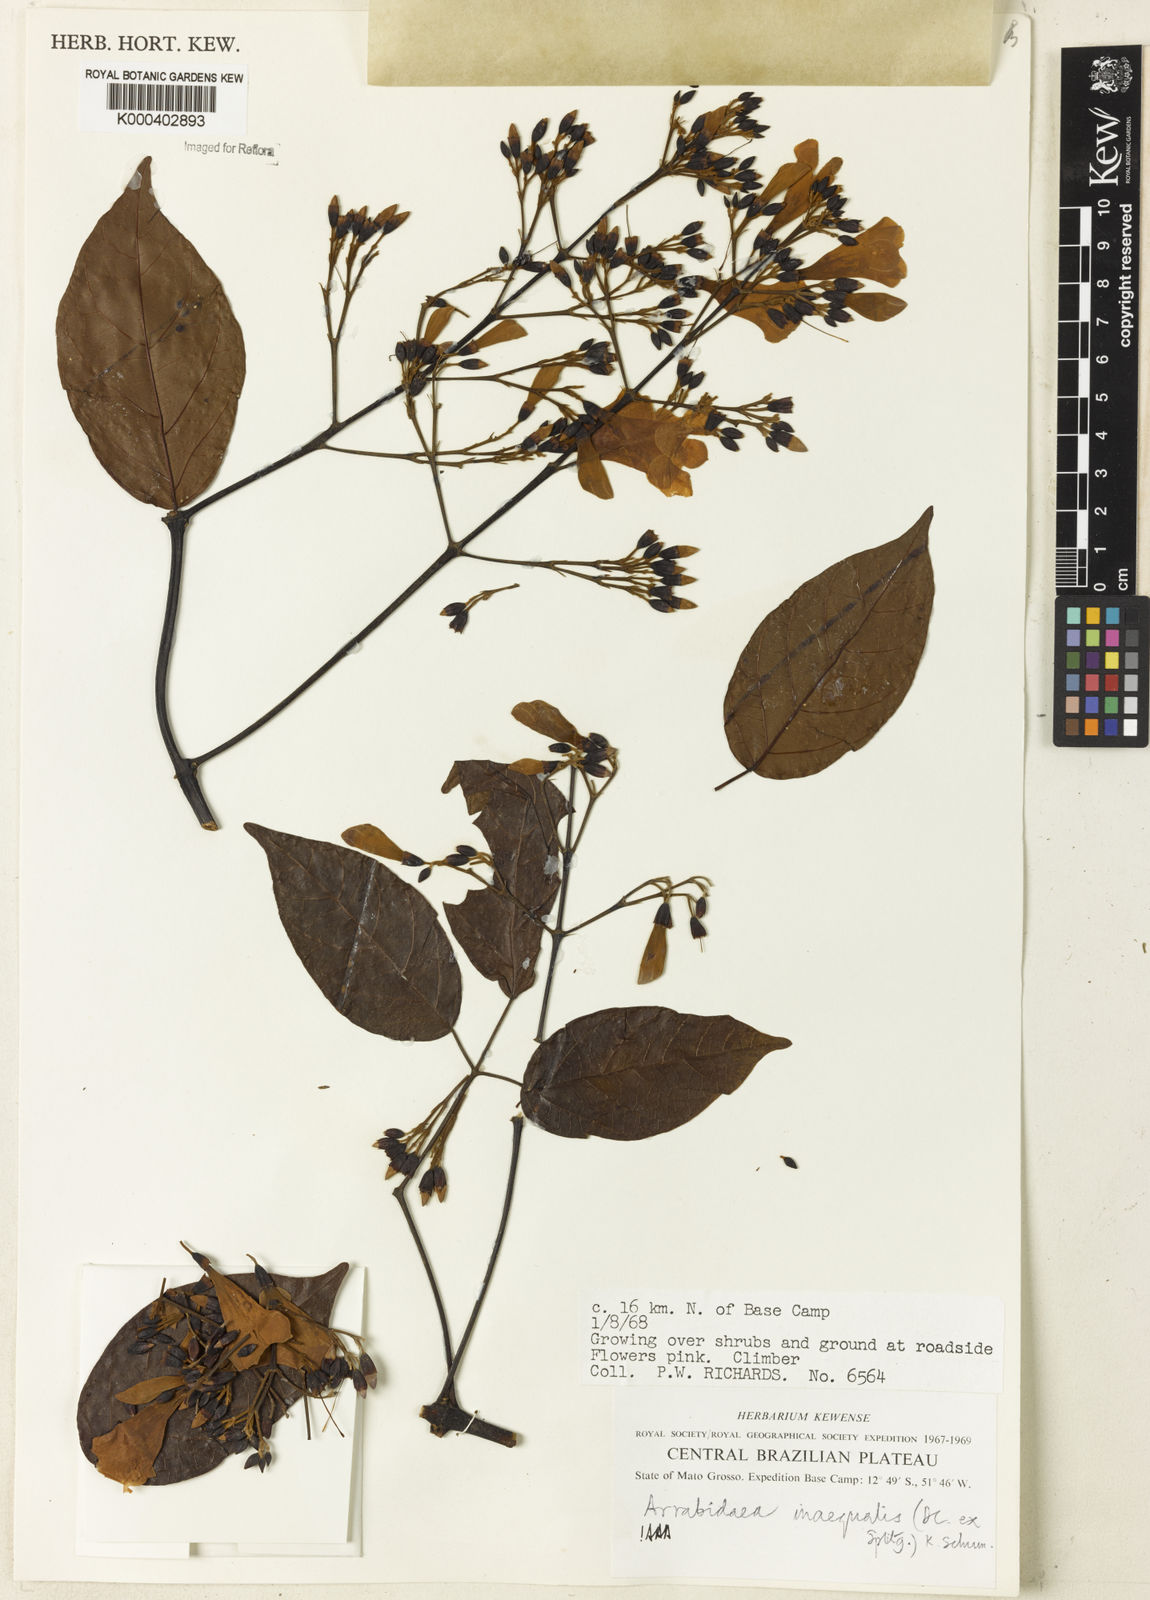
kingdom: Plantae
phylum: Tracheophyta
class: Magnoliopsida
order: Lamiales
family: Bignoniaceae
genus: Cuspidaria
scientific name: Cuspidaria inaequalis
